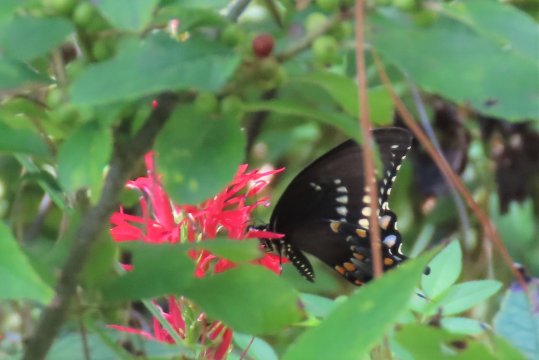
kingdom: Animalia
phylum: Arthropoda
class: Insecta
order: Lepidoptera
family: Papilionidae
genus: Pterourus
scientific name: Pterourus troilus
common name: Spicebush Swallowtail
